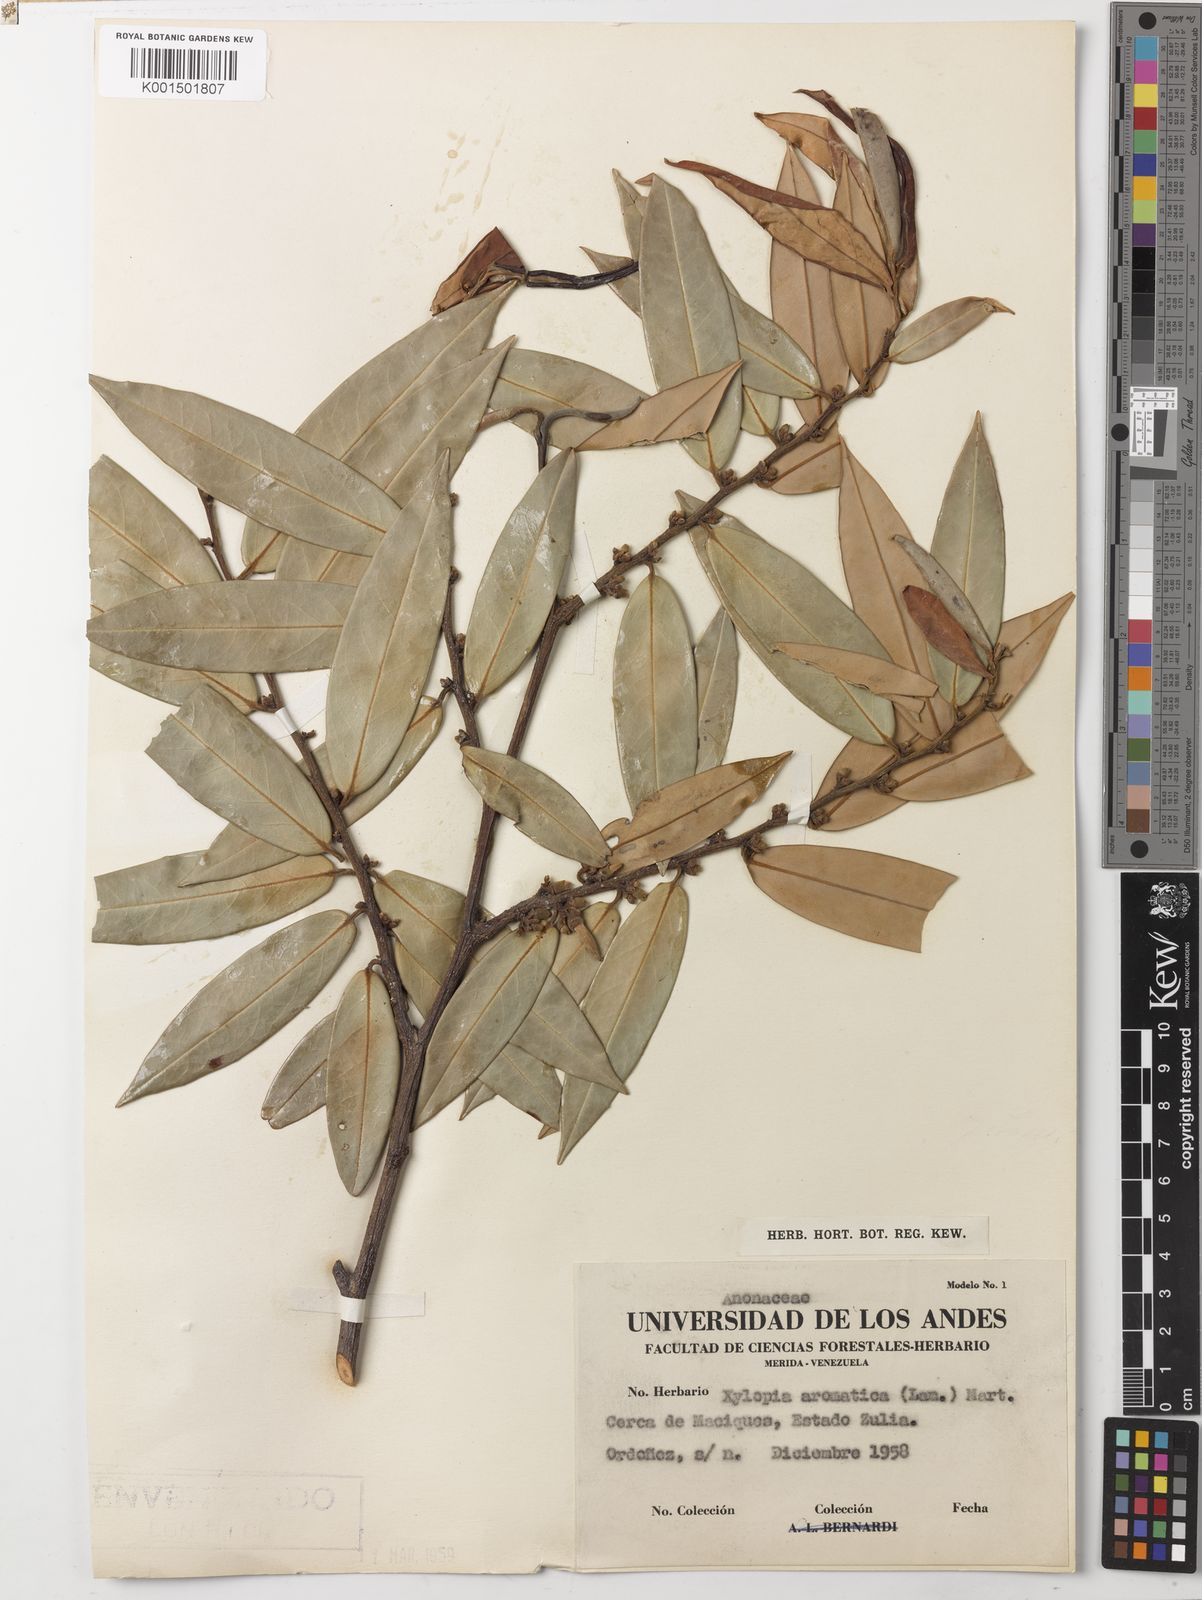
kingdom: Plantae
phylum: Tracheophyta
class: Magnoliopsida
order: Magnoliales
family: Annonaceae
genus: Xylopia
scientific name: Xylopia aromatica
